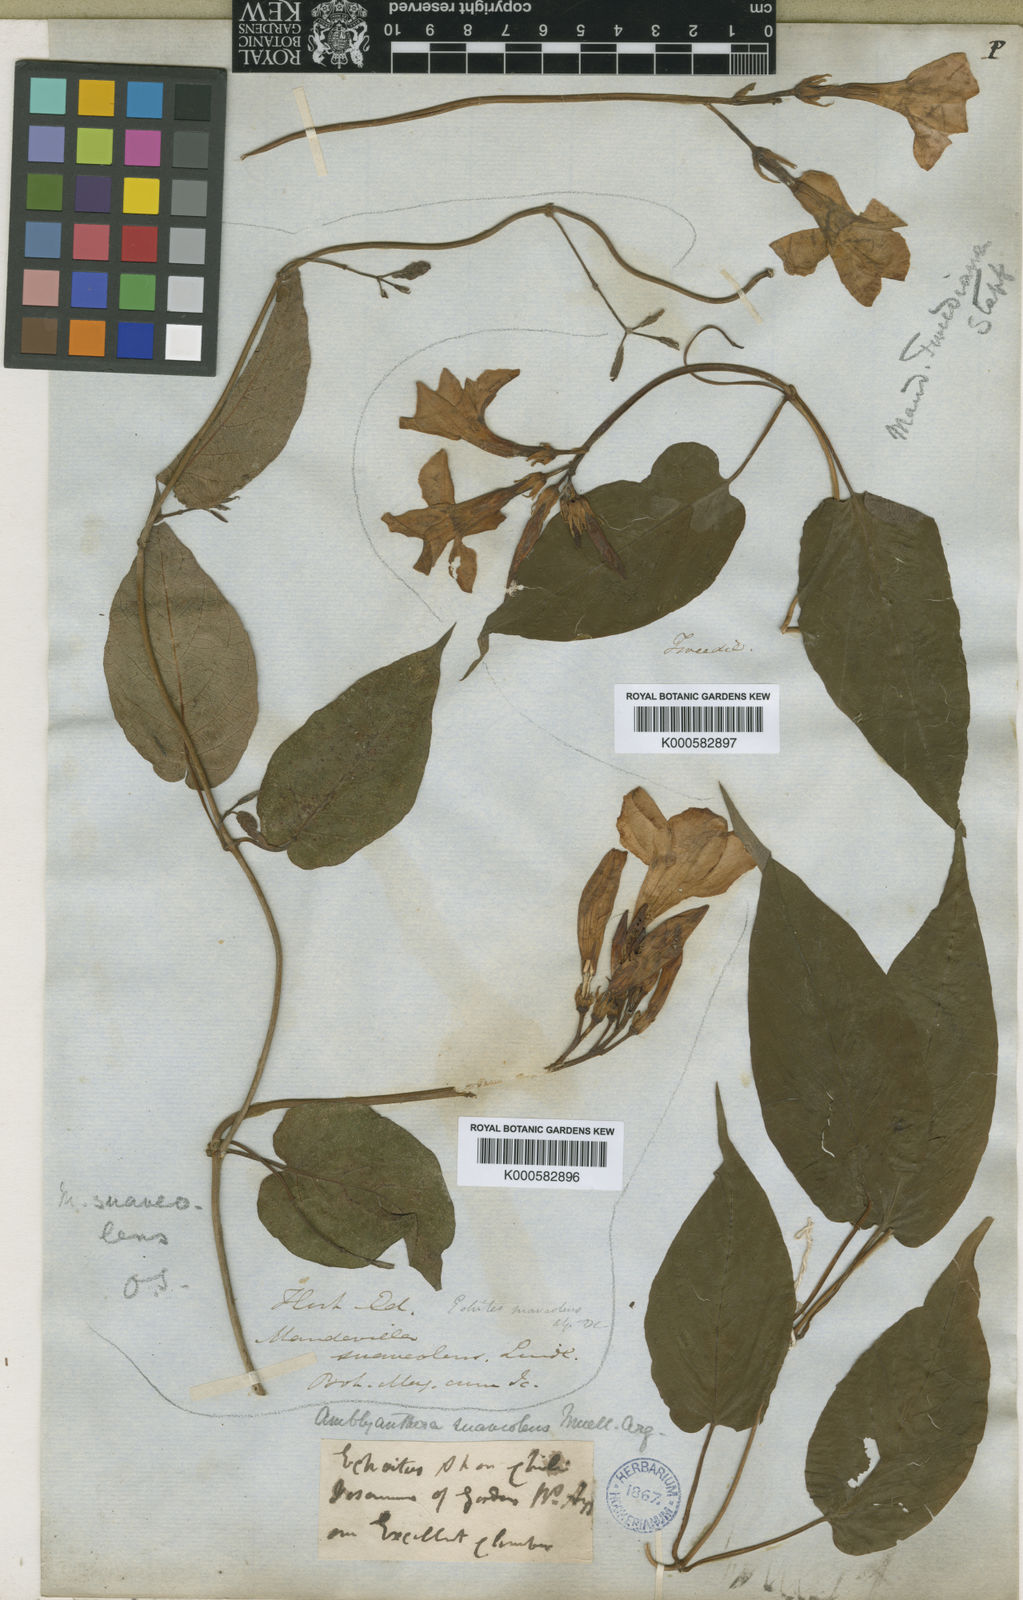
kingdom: Plantae
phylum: Tracheophyta
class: Magnoliopsida
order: Gentianales
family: Apocynaceae
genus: Mandevilla
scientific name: Mandevilla laxa
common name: Chilean-jasmine
